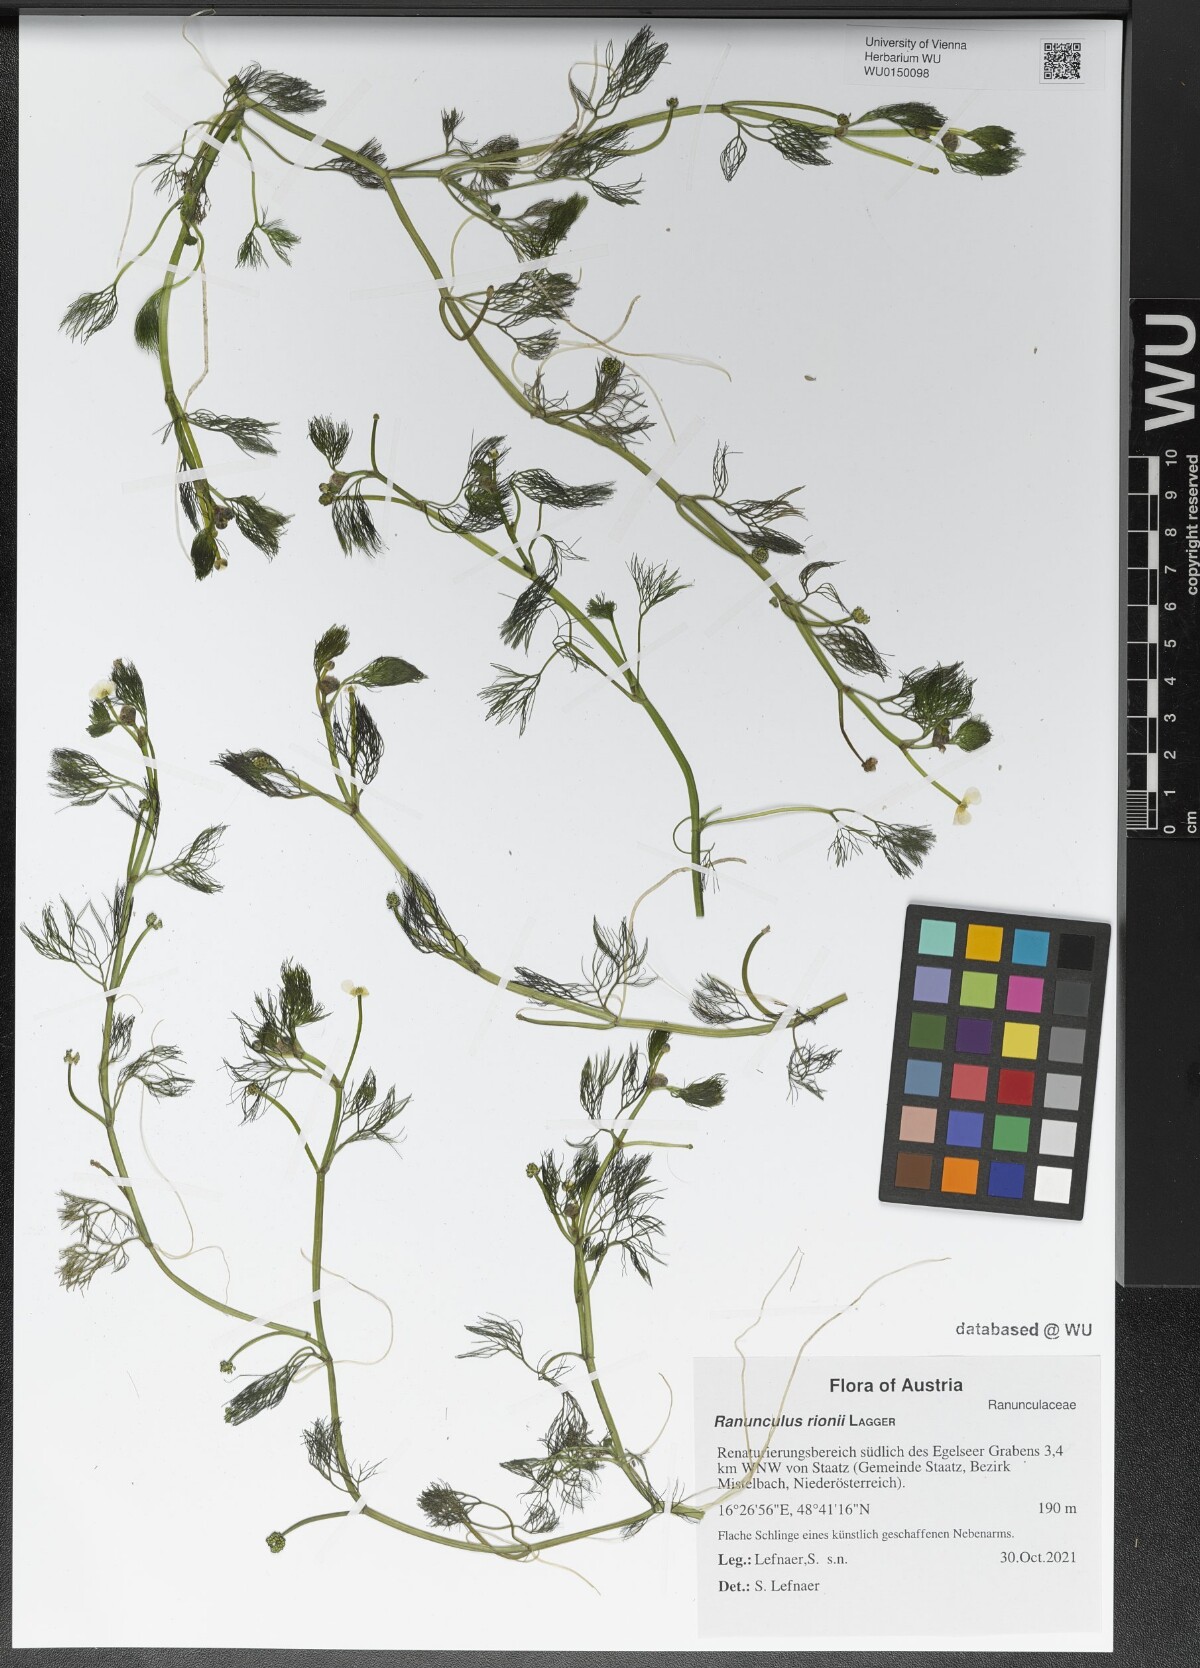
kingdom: Plantae
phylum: Tracheophyta
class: Magnoliopsida
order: Ranunculales
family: Ranunculaceae
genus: Ranunculus
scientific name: Ranunculus rionii
